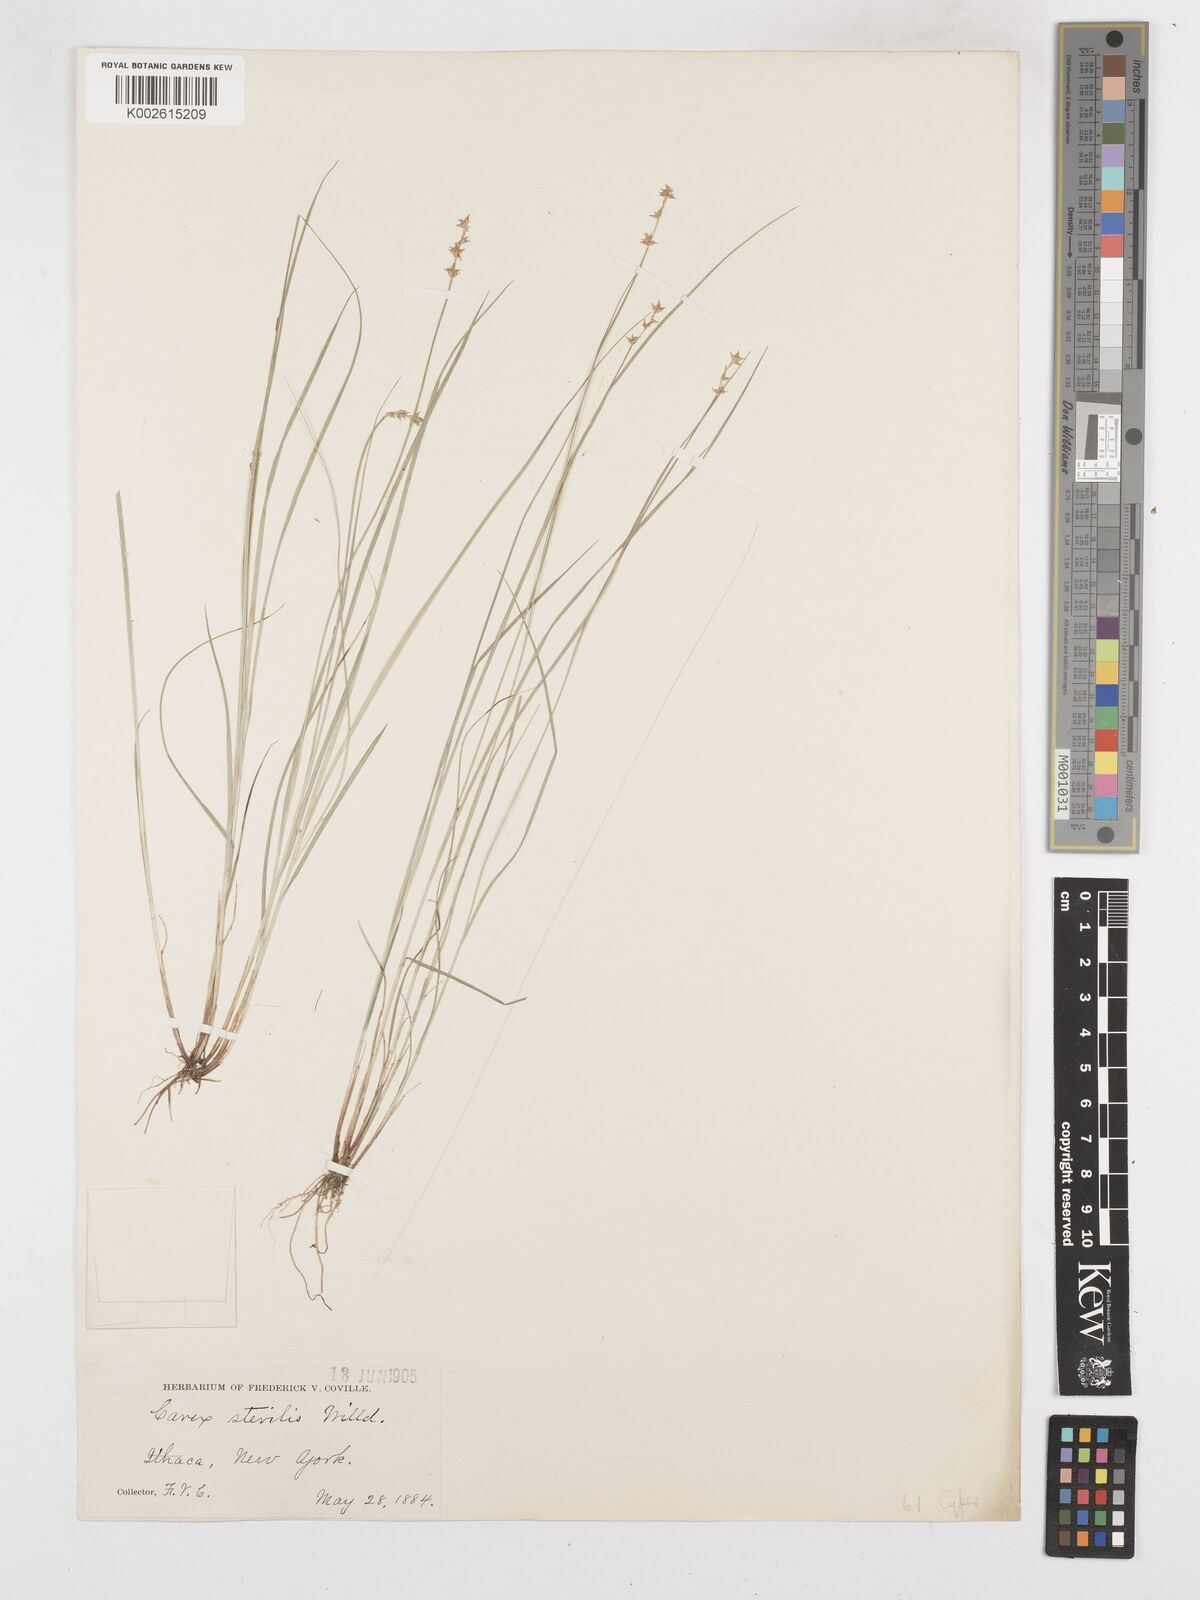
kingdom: Plantae
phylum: Tracheophyta
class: Liliopsida
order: Poales
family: Cyperaceae
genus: Carex
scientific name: Carex echinata
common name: Star sedge
